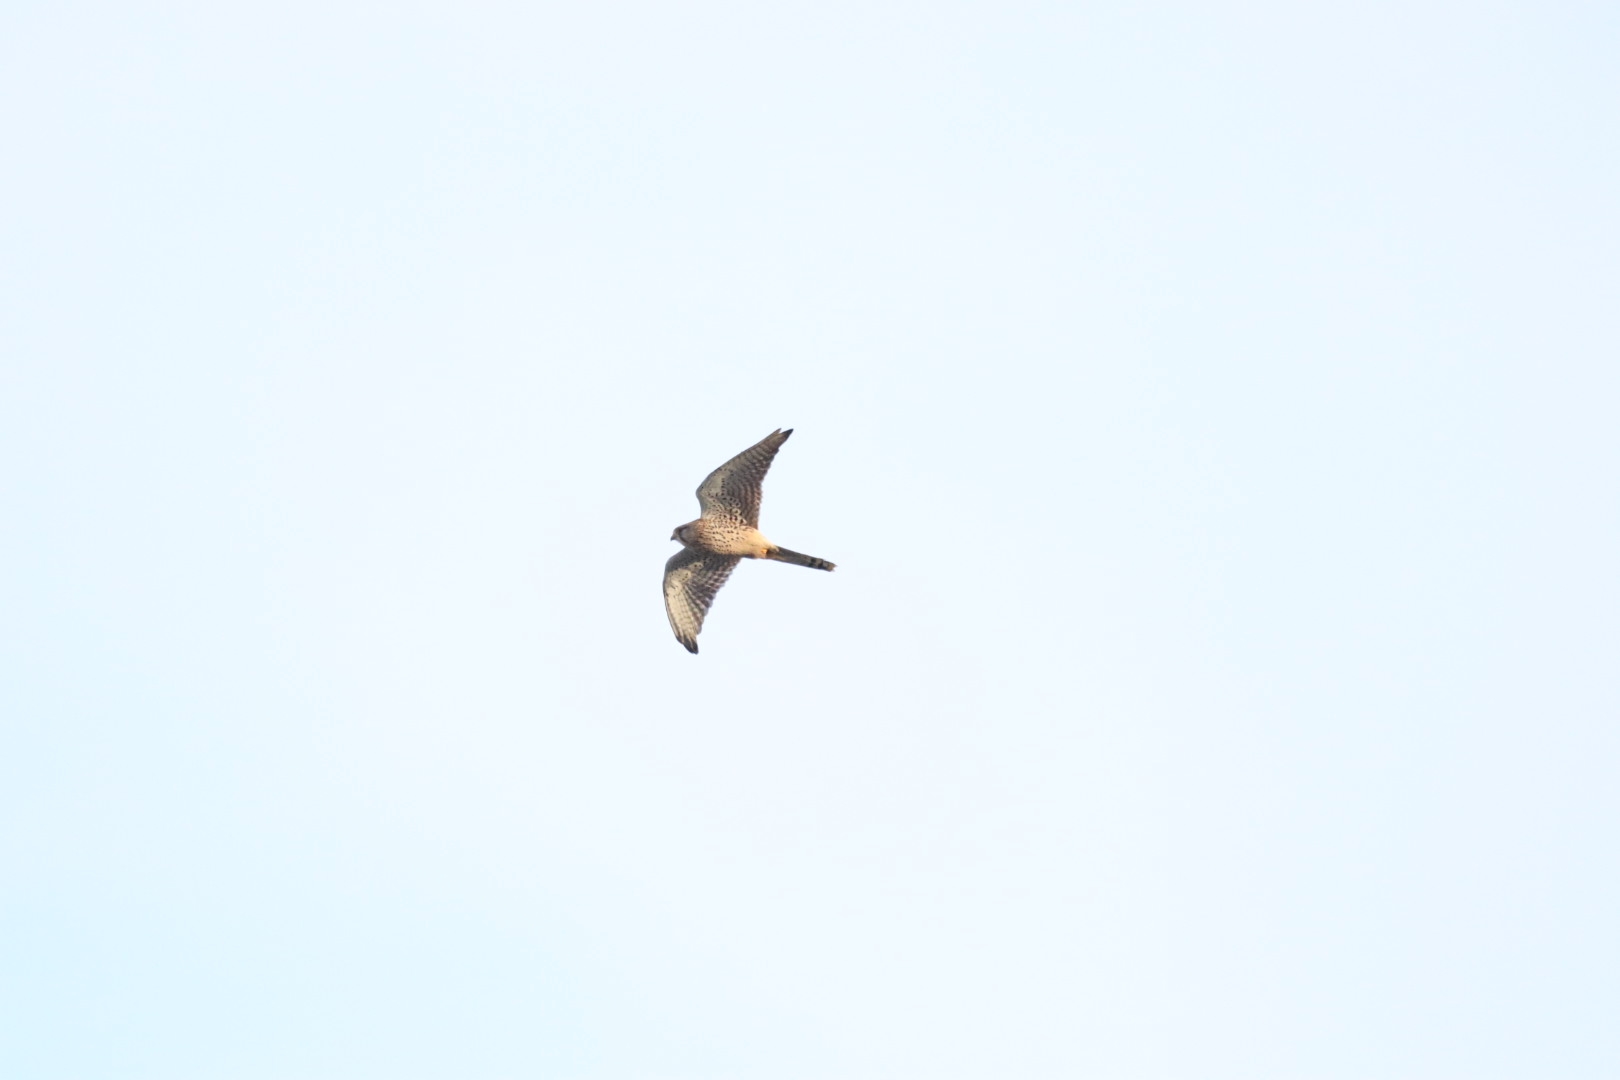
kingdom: Animalia
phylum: Chordata
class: Aves
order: Falconiformes
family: Falconidae
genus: Falco
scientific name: Falco tinnunculus
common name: Tårnfalk
